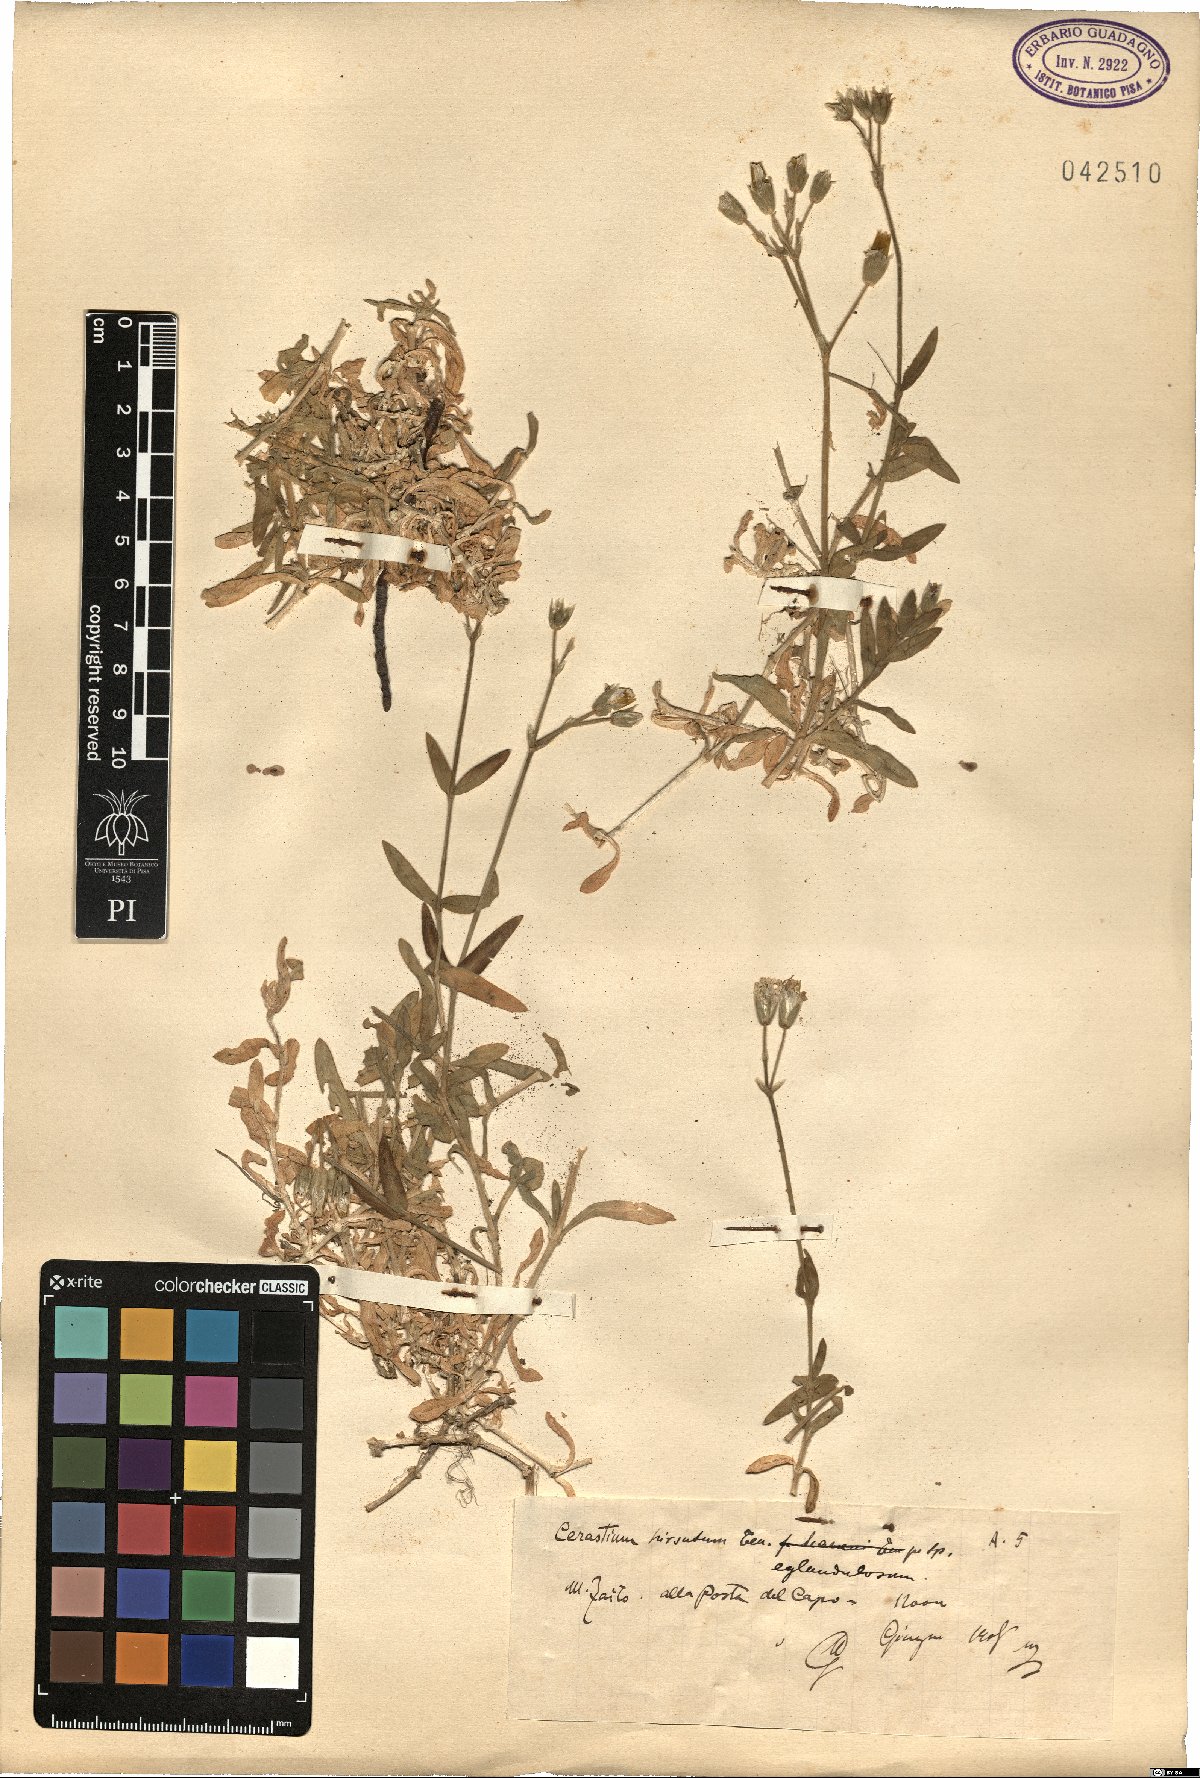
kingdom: Plantae
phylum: Tracheophyta
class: Magnoliopsida
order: Caryophyllales
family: Caryophyllaceae
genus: Cerastium
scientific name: Cerastium
